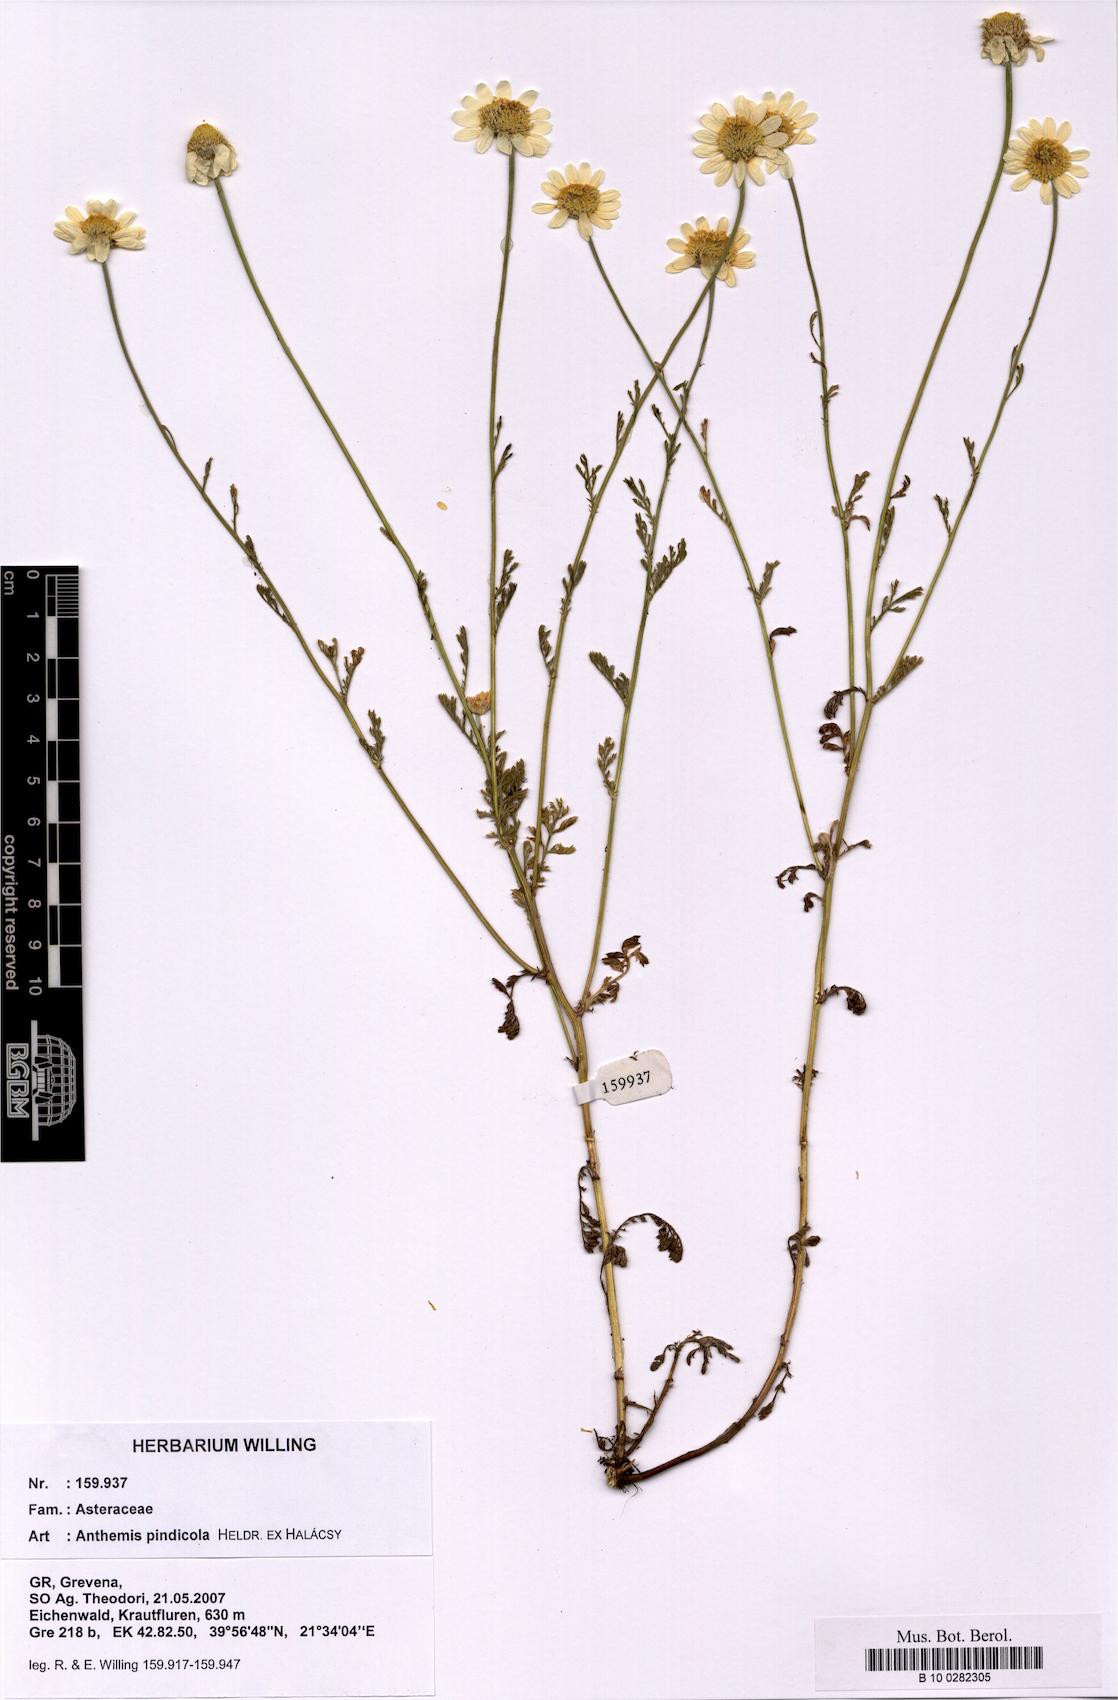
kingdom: Plantae
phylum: Tracheophyta
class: Magnoliopsida
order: Asterales
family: Asteraceae
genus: Anthemis
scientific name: Anthemis pindicola
